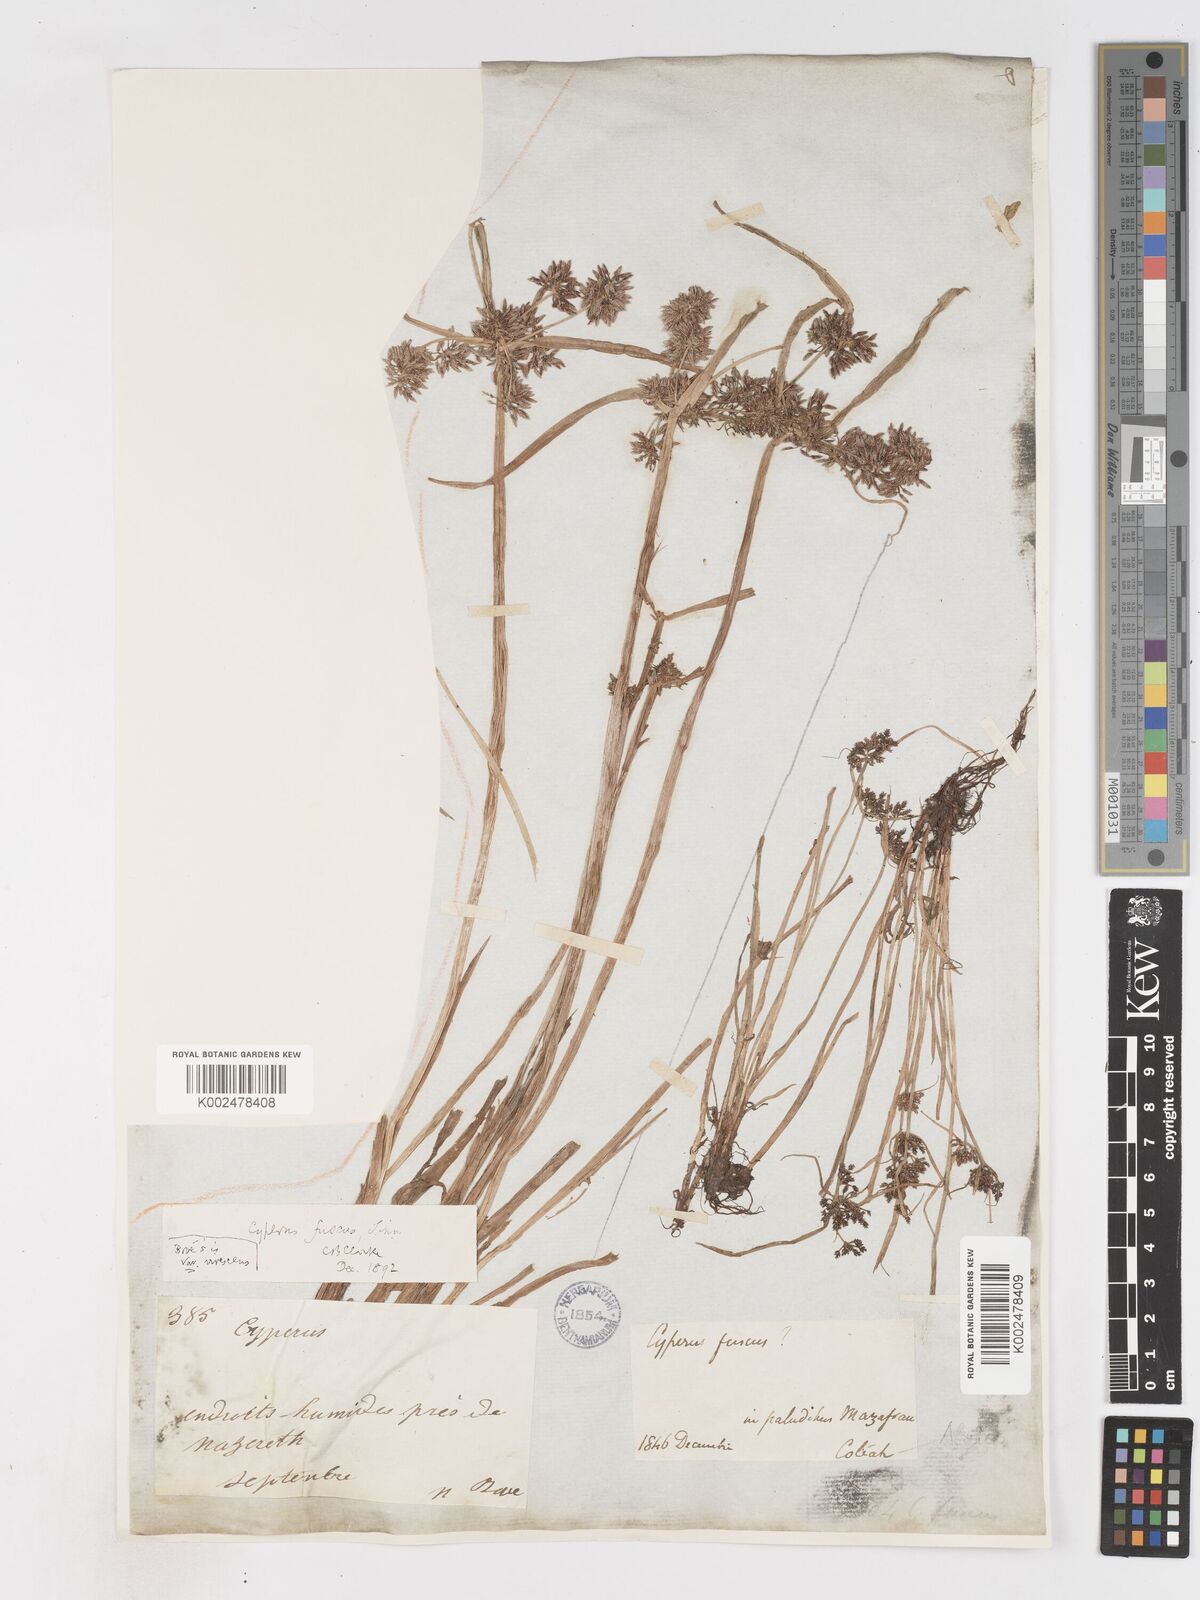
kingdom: Plantae
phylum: Tracheophyta
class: Liliopsida
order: Poales
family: Cyperaceae
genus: Cyperus
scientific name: Cyperus fuscus
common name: Brown galingale
